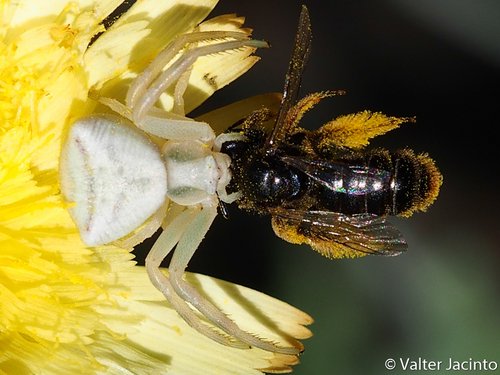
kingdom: Animalia
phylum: Arthropoda
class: Arachnida
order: Araneae
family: Thomisidae
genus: Thomisus
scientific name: Thomisus onustus
